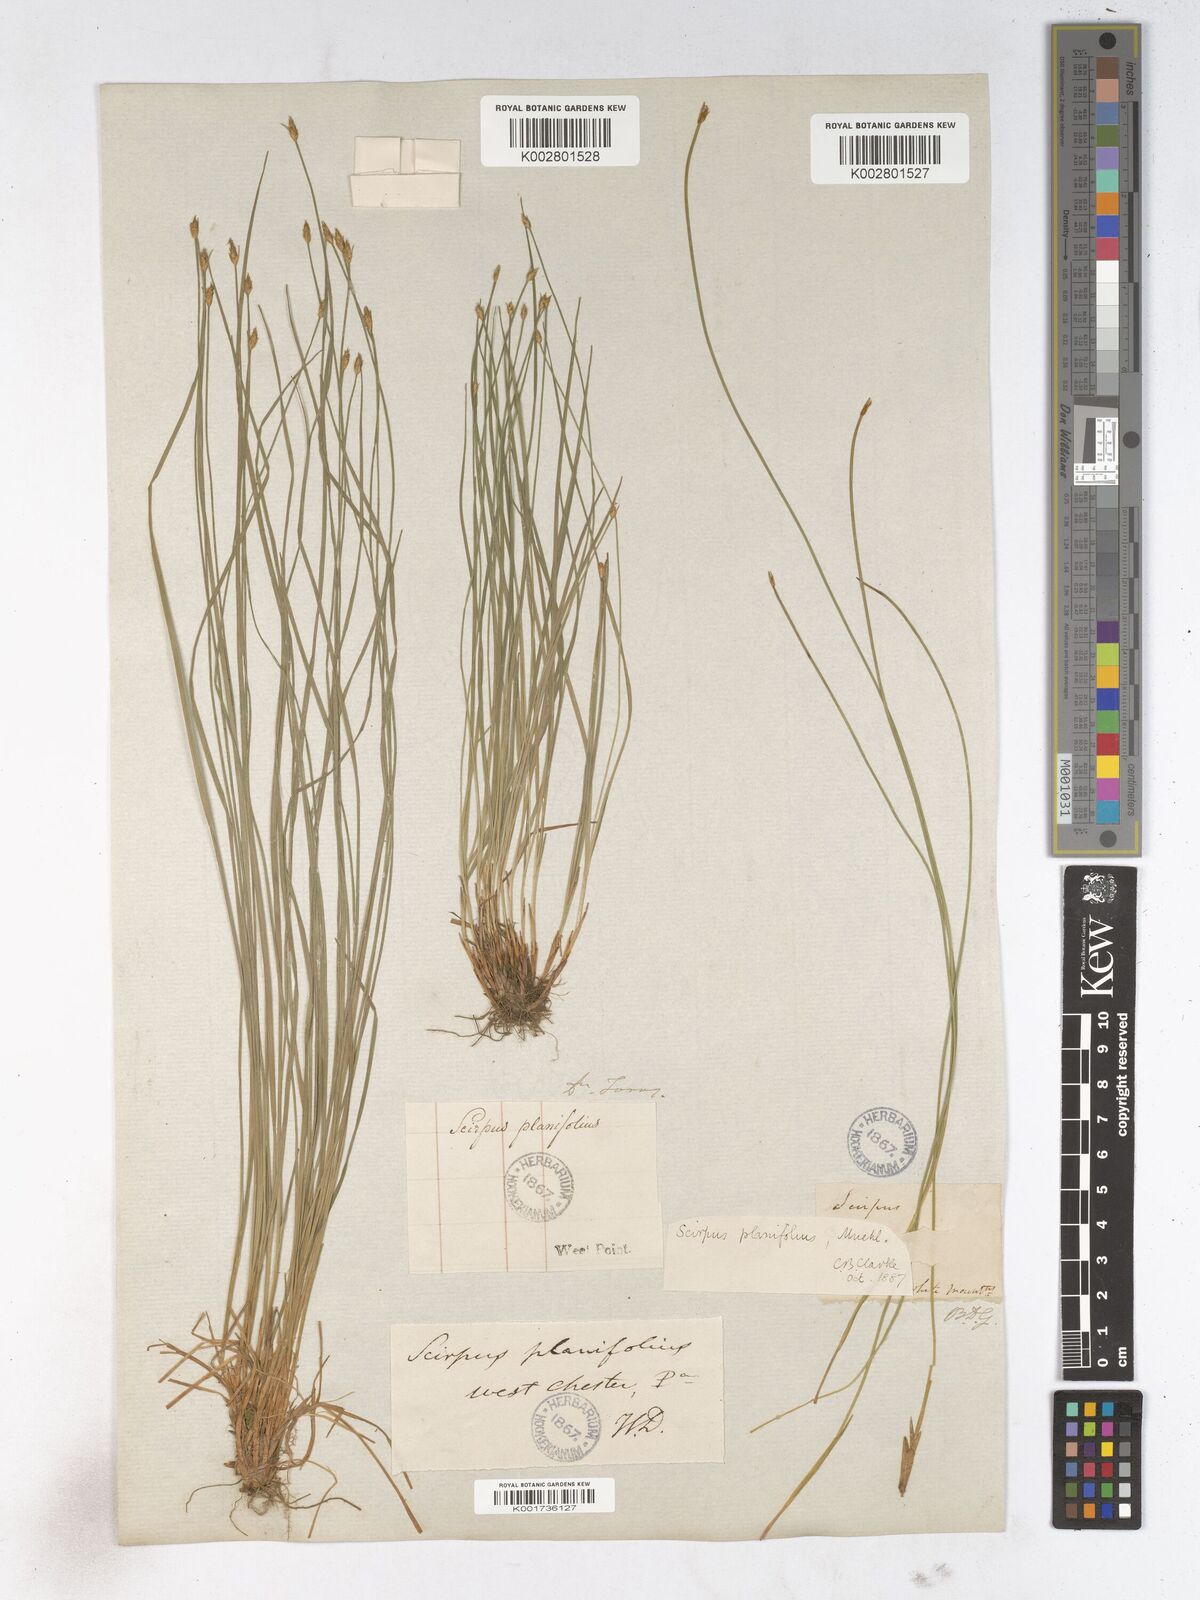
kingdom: Plantae
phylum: Tracheophyta
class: Liliopsida
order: Poales
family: Cyperaceae
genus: Trichophorum
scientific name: Trichophorum planifolium
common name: Bashful bulrush
